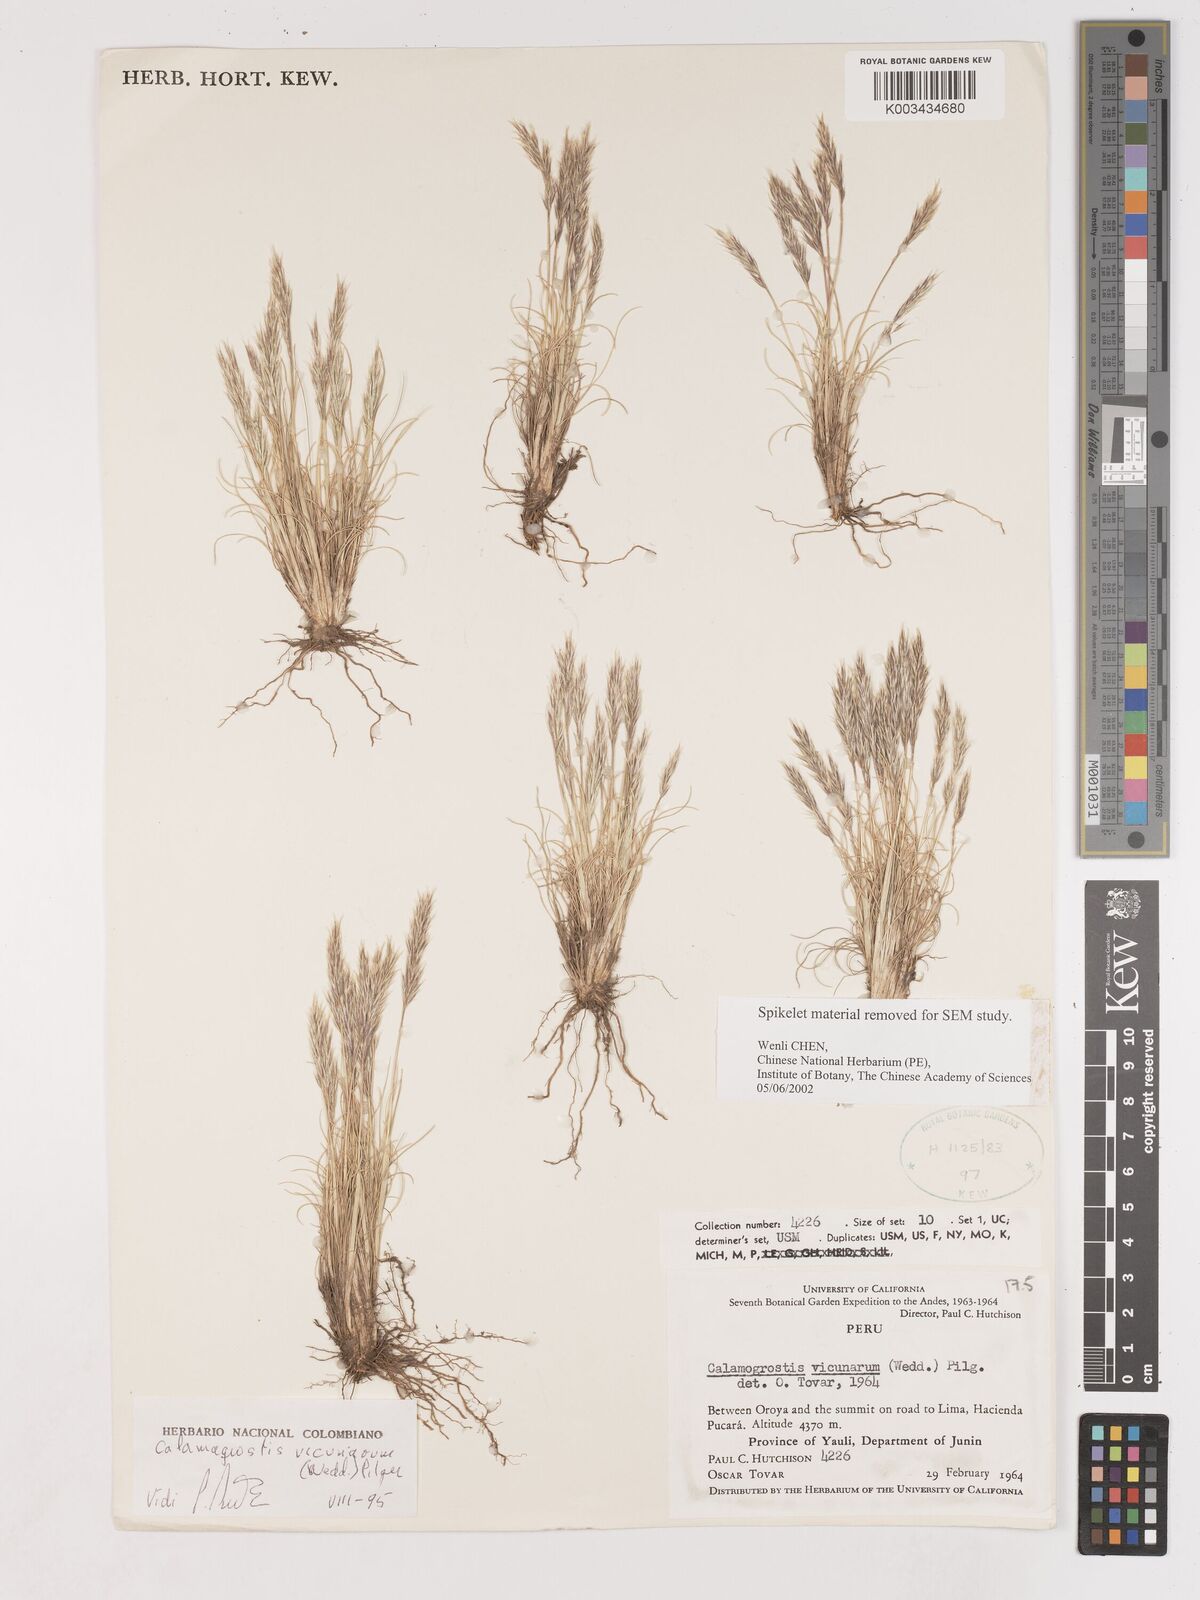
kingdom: Plantae
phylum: Tracheophyta
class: Liliopsida
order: Poales
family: Poaceae
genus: Cinnagrostis
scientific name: Cinnagrostis vicunarum
